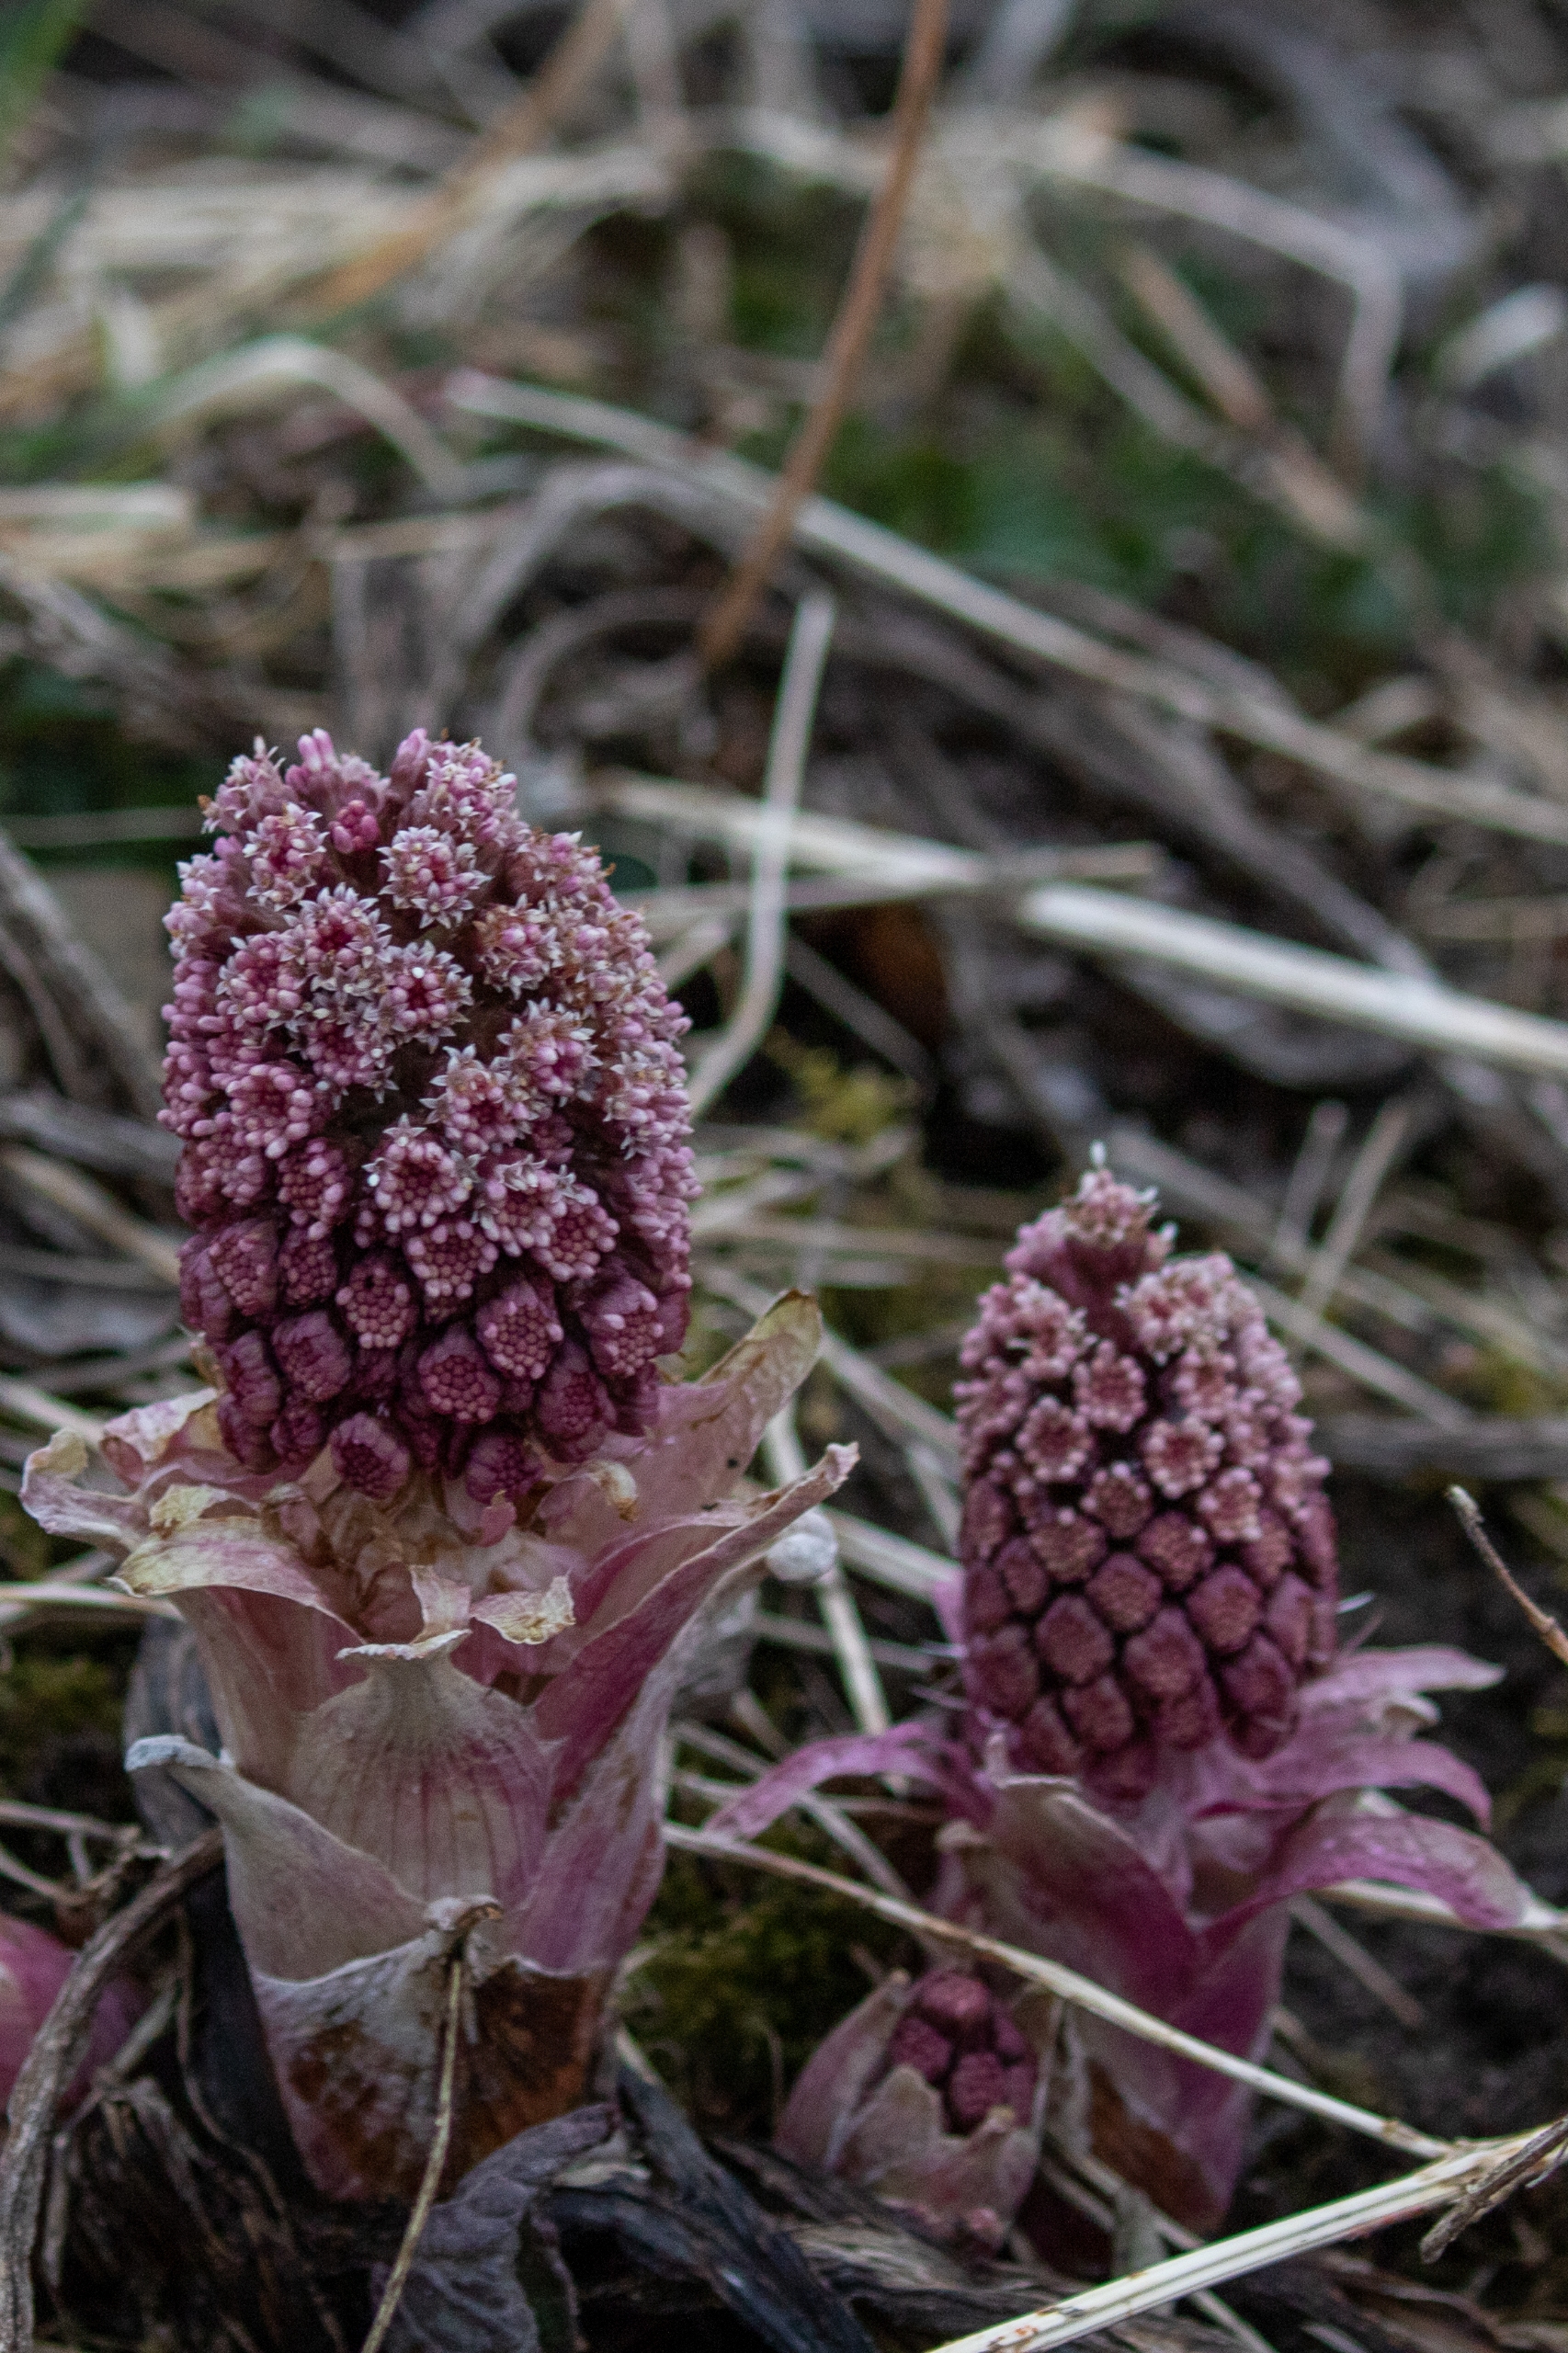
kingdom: Plantae
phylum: Tracheophyta
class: Magnoliopsida
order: Asterales
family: Asteraceae
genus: Petasites
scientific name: Petasites hybridus
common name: Rød hestehov
